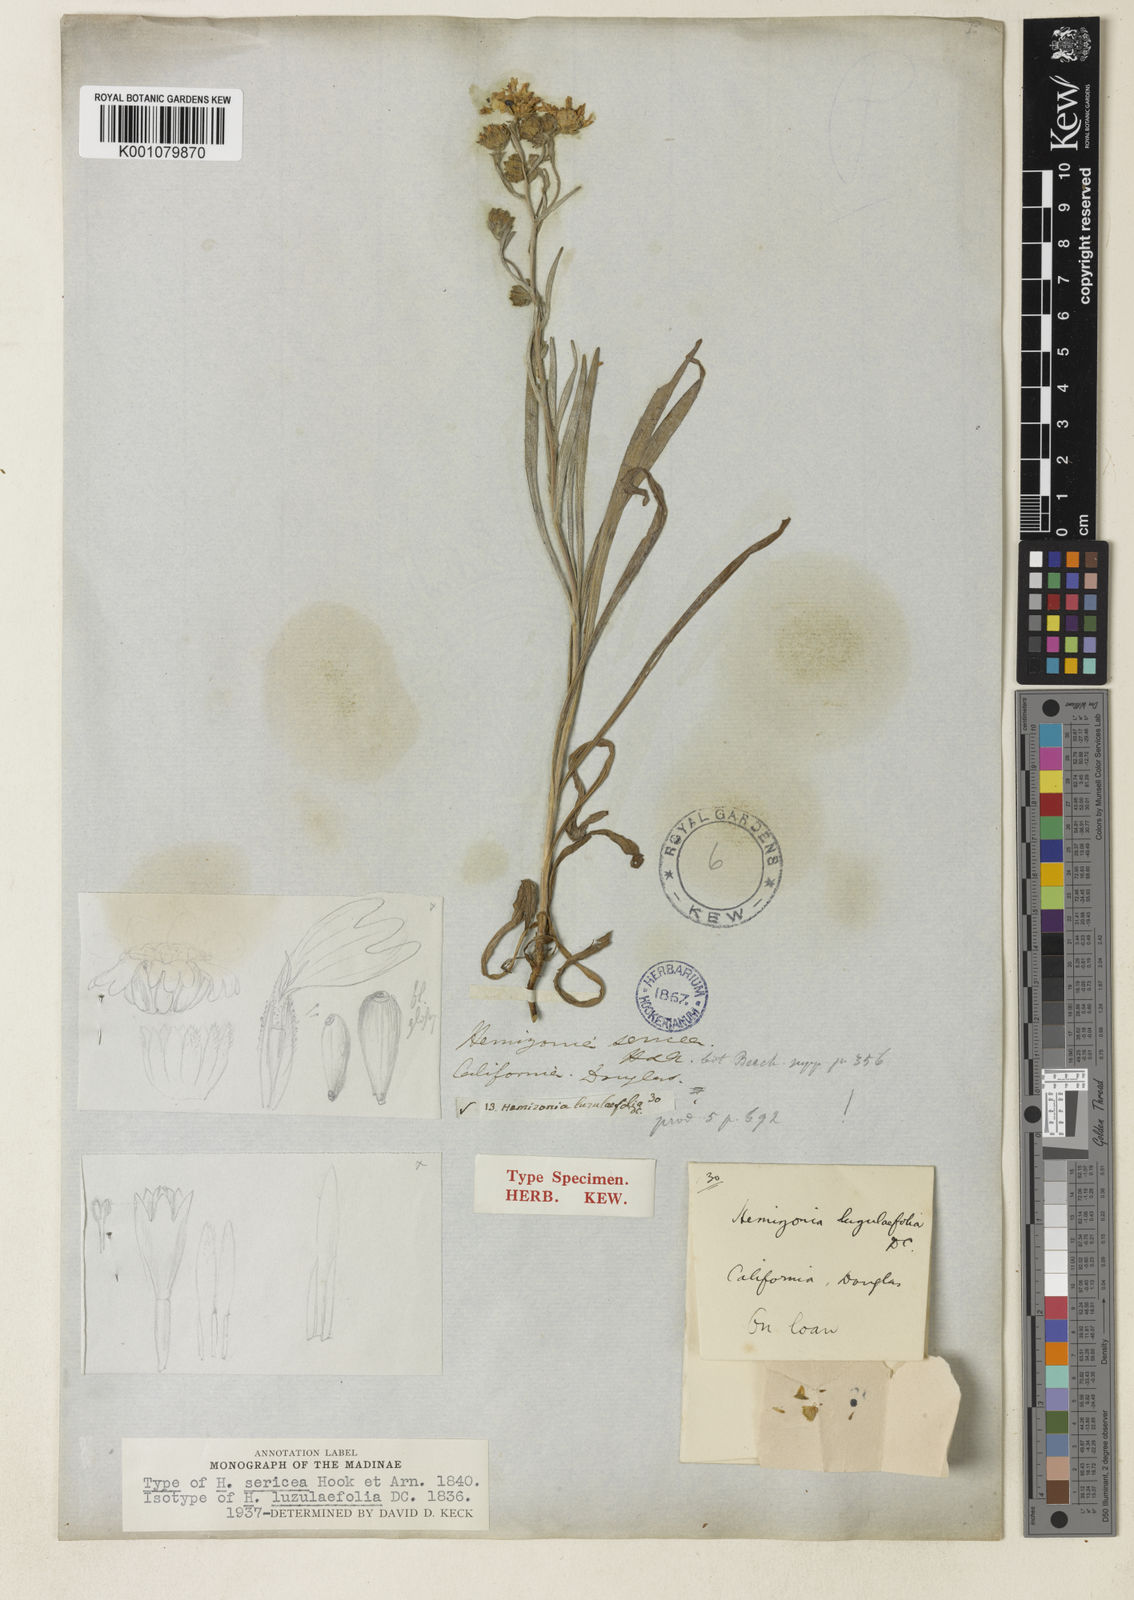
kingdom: Plantae
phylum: Tracheophyta
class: Magnoliopsida
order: Asterales
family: Asteraceae
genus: Hemizonia
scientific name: Hemizonia congesta
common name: Hayfield tarweed
